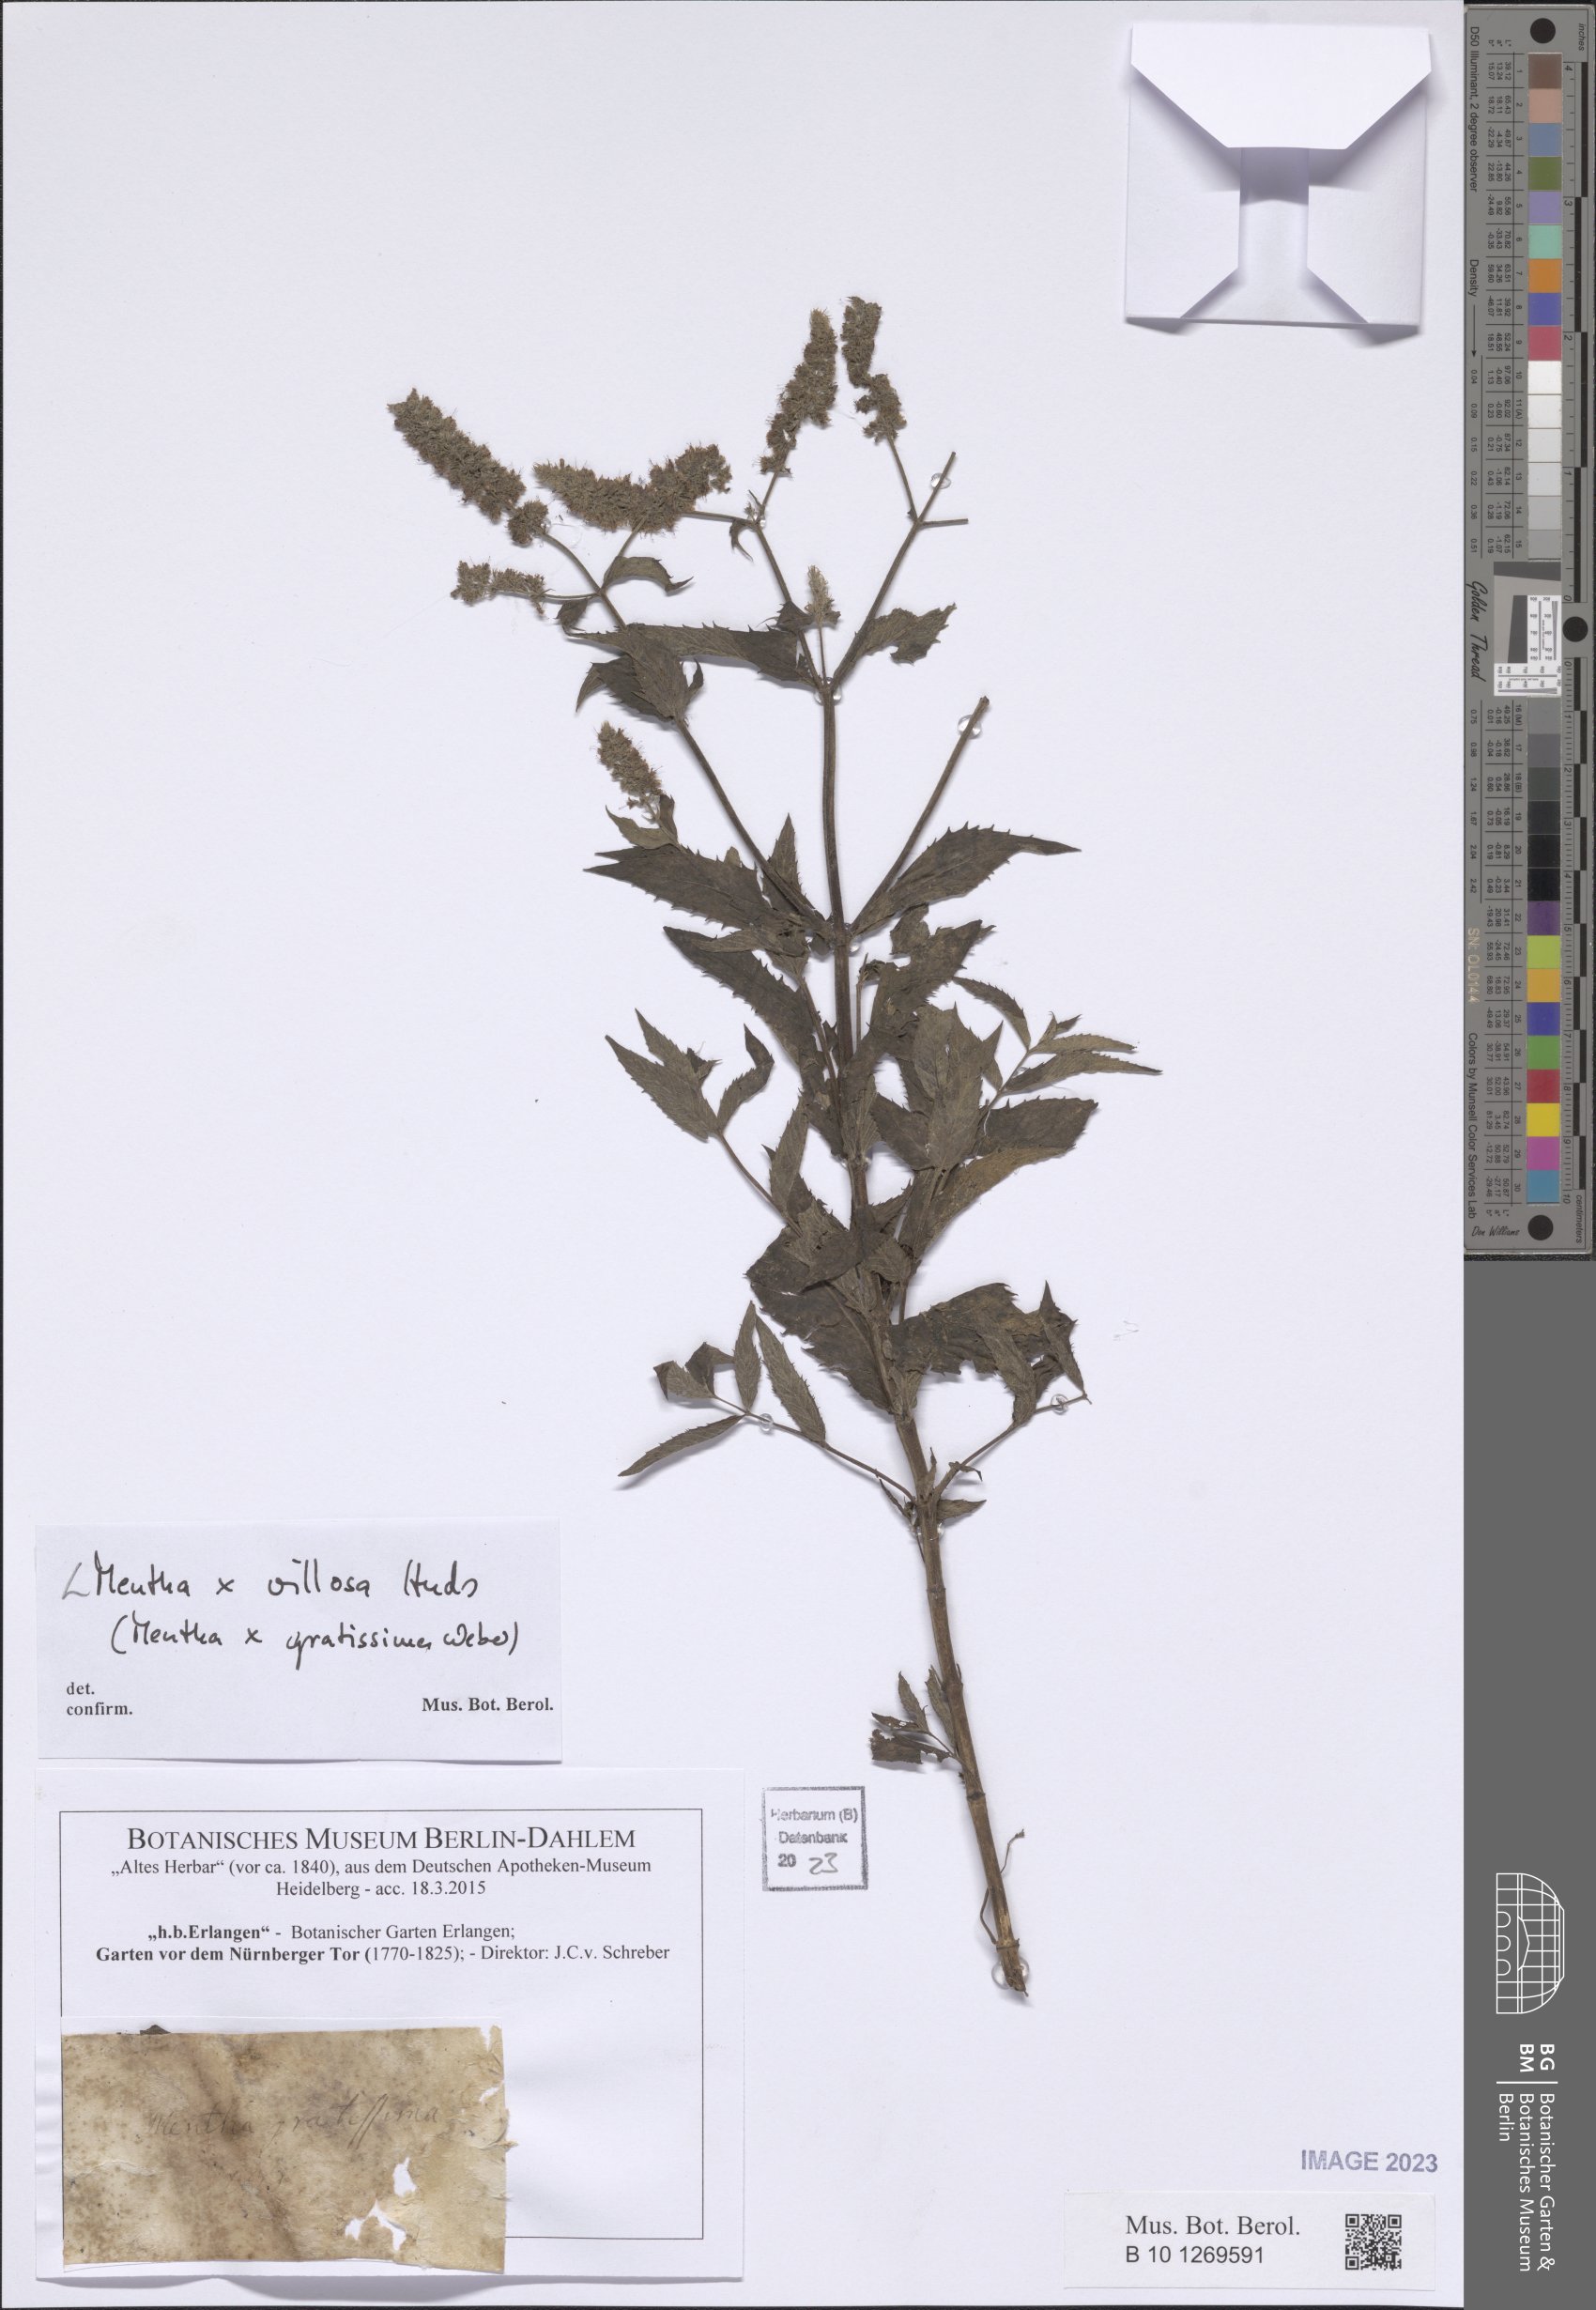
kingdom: Plantae
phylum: Tracheophyta
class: Magnoliopsida
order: Lamiales
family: Lamiaceae
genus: Mentha
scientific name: Mentha villosa
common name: Apple mint
